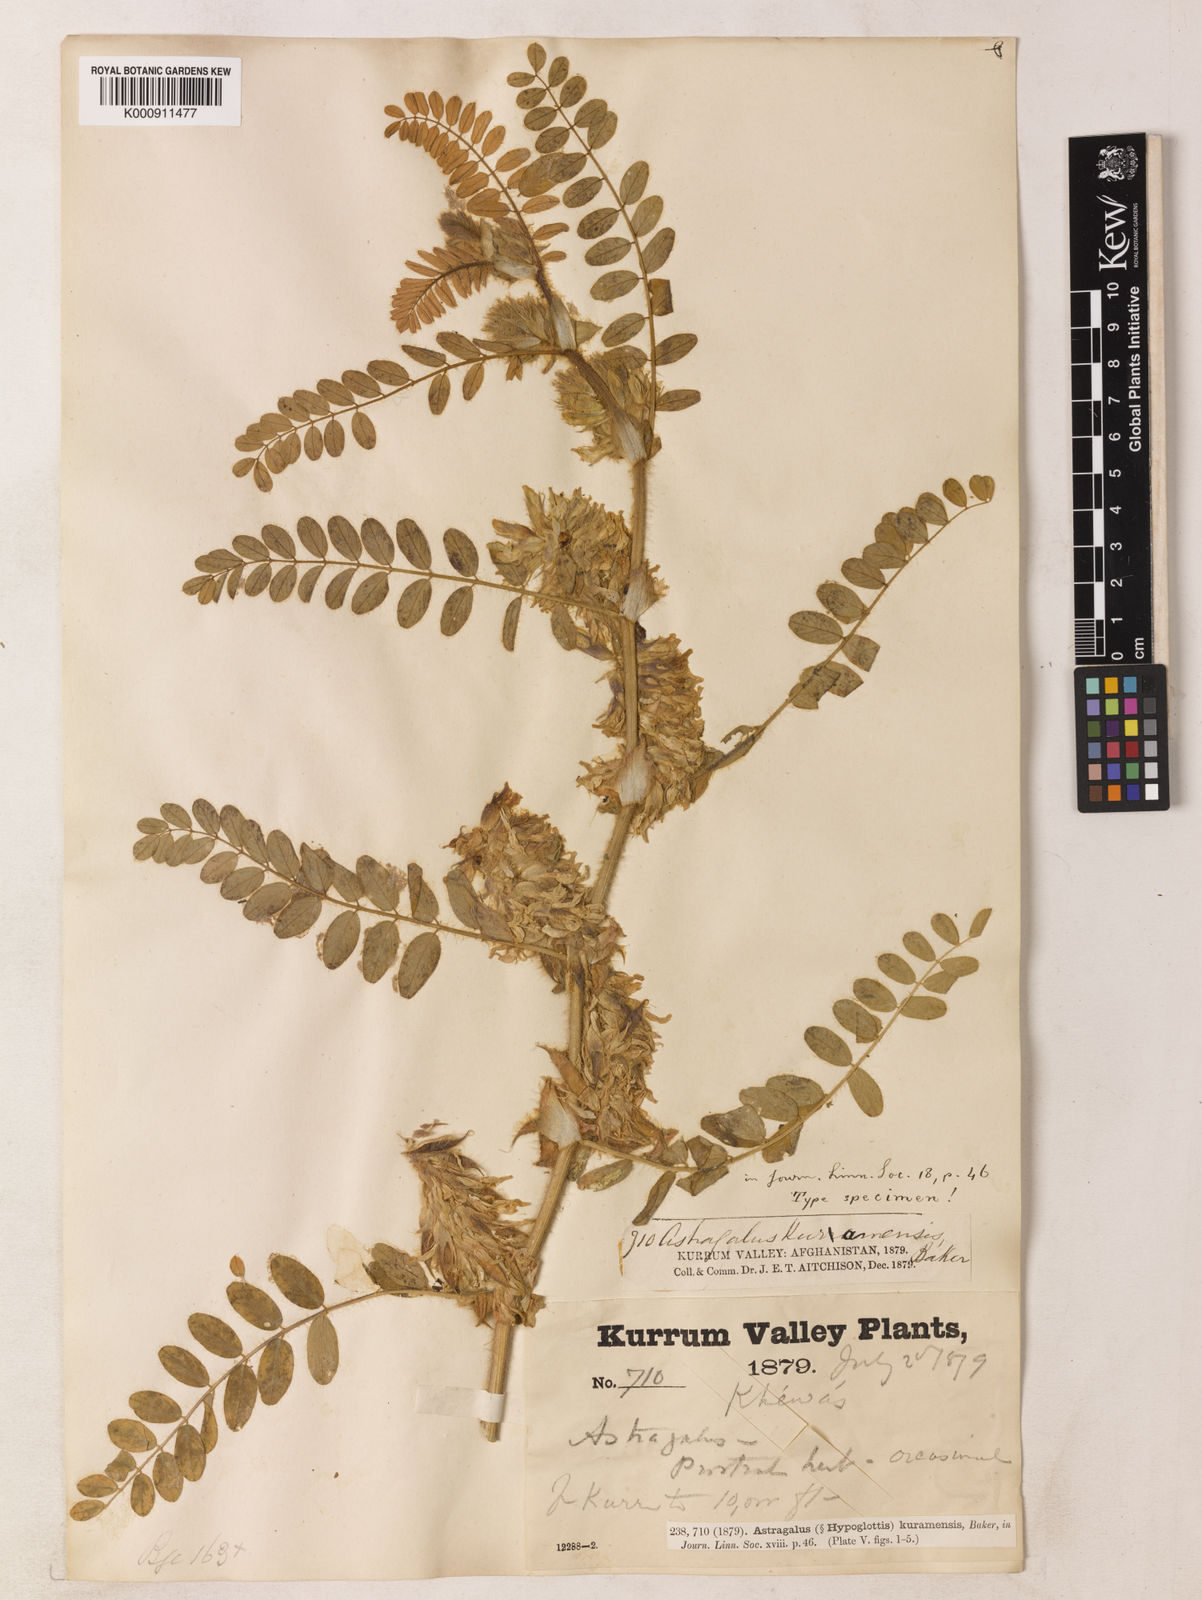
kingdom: Plantae
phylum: Tracheophyta
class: Magnoliopsida
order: Fabales
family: Fabaceae
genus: Astragalus
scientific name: Astragalus kuramensis
